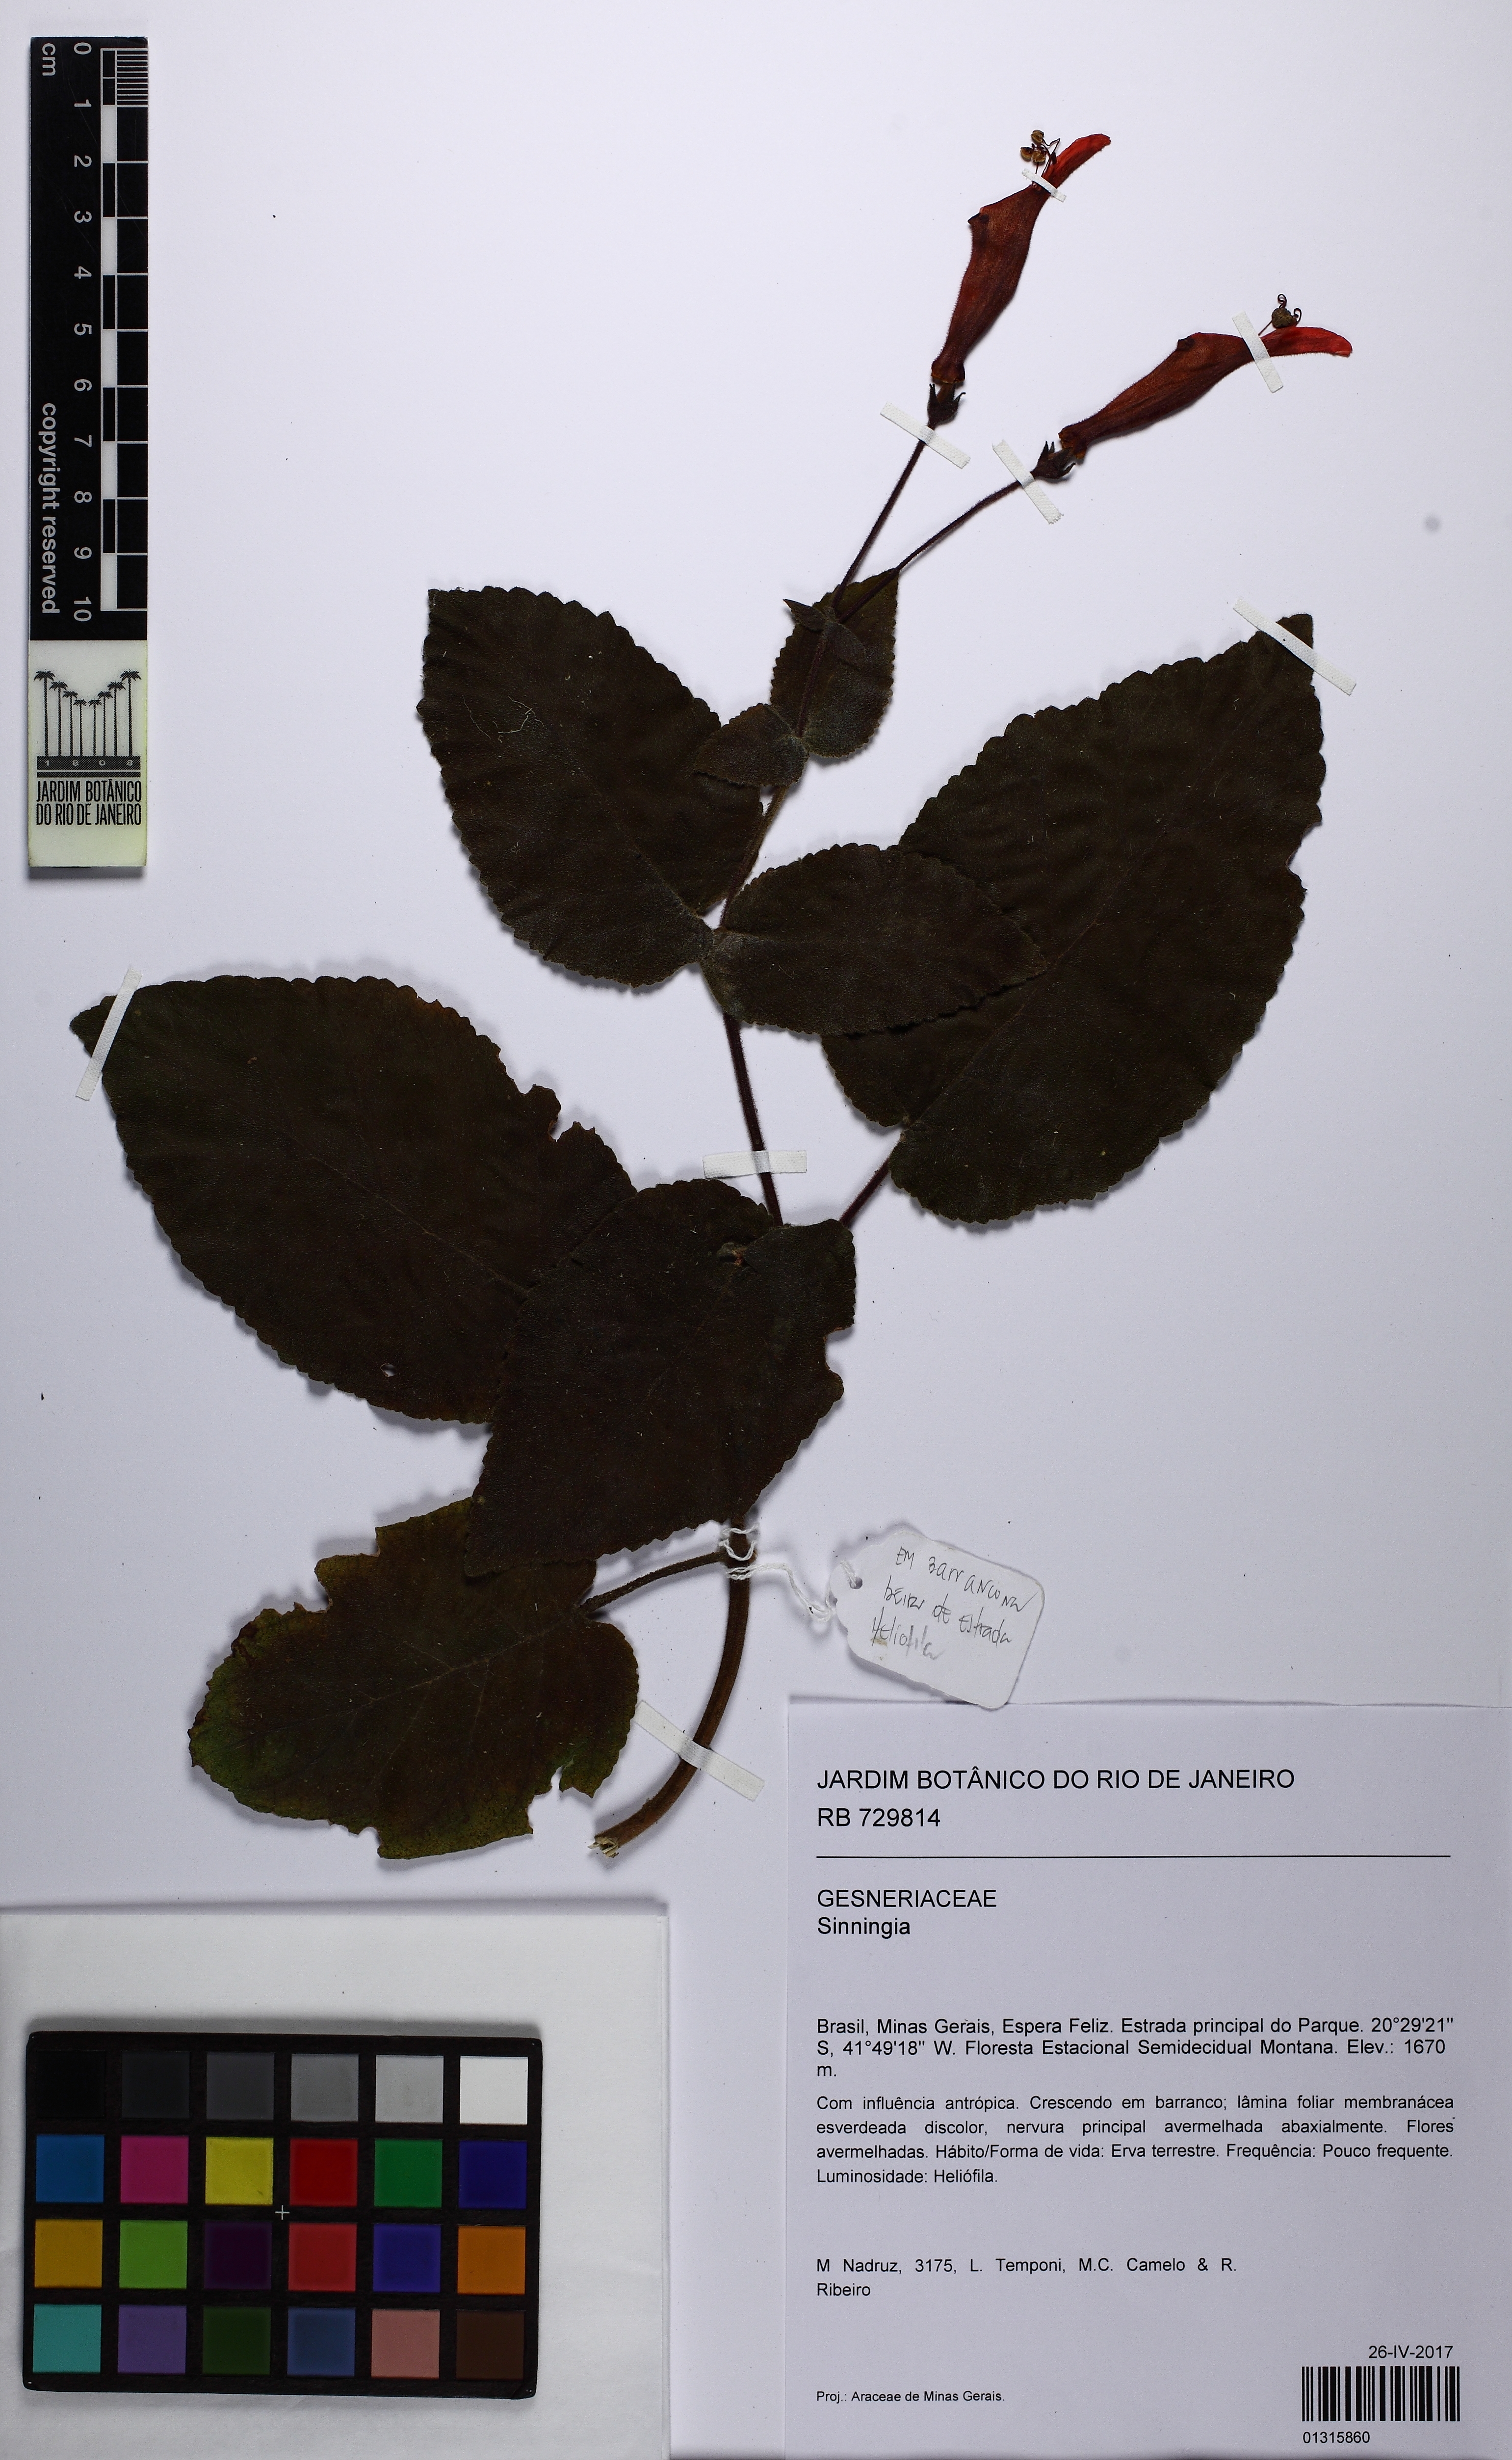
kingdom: Plantae
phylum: Tracheophyta
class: Magnoliopsida
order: Lamiales
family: Gesneriaceae
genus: Sinningia
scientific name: Sinningia
